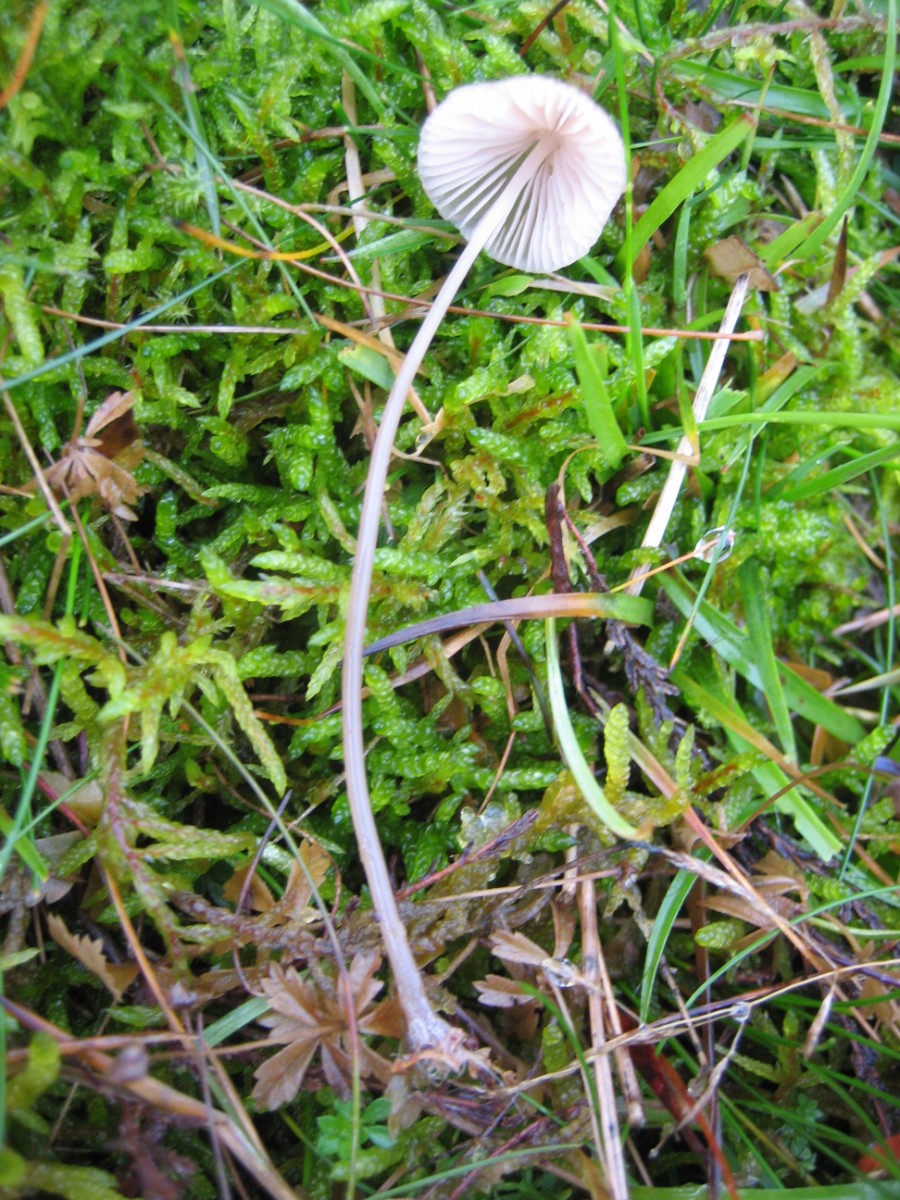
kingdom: Fungi
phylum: Basidiomycota
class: Agaricomycetes
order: Agaricales
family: Mycenaceae
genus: Mycena
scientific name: Mycena
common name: huesvamp
